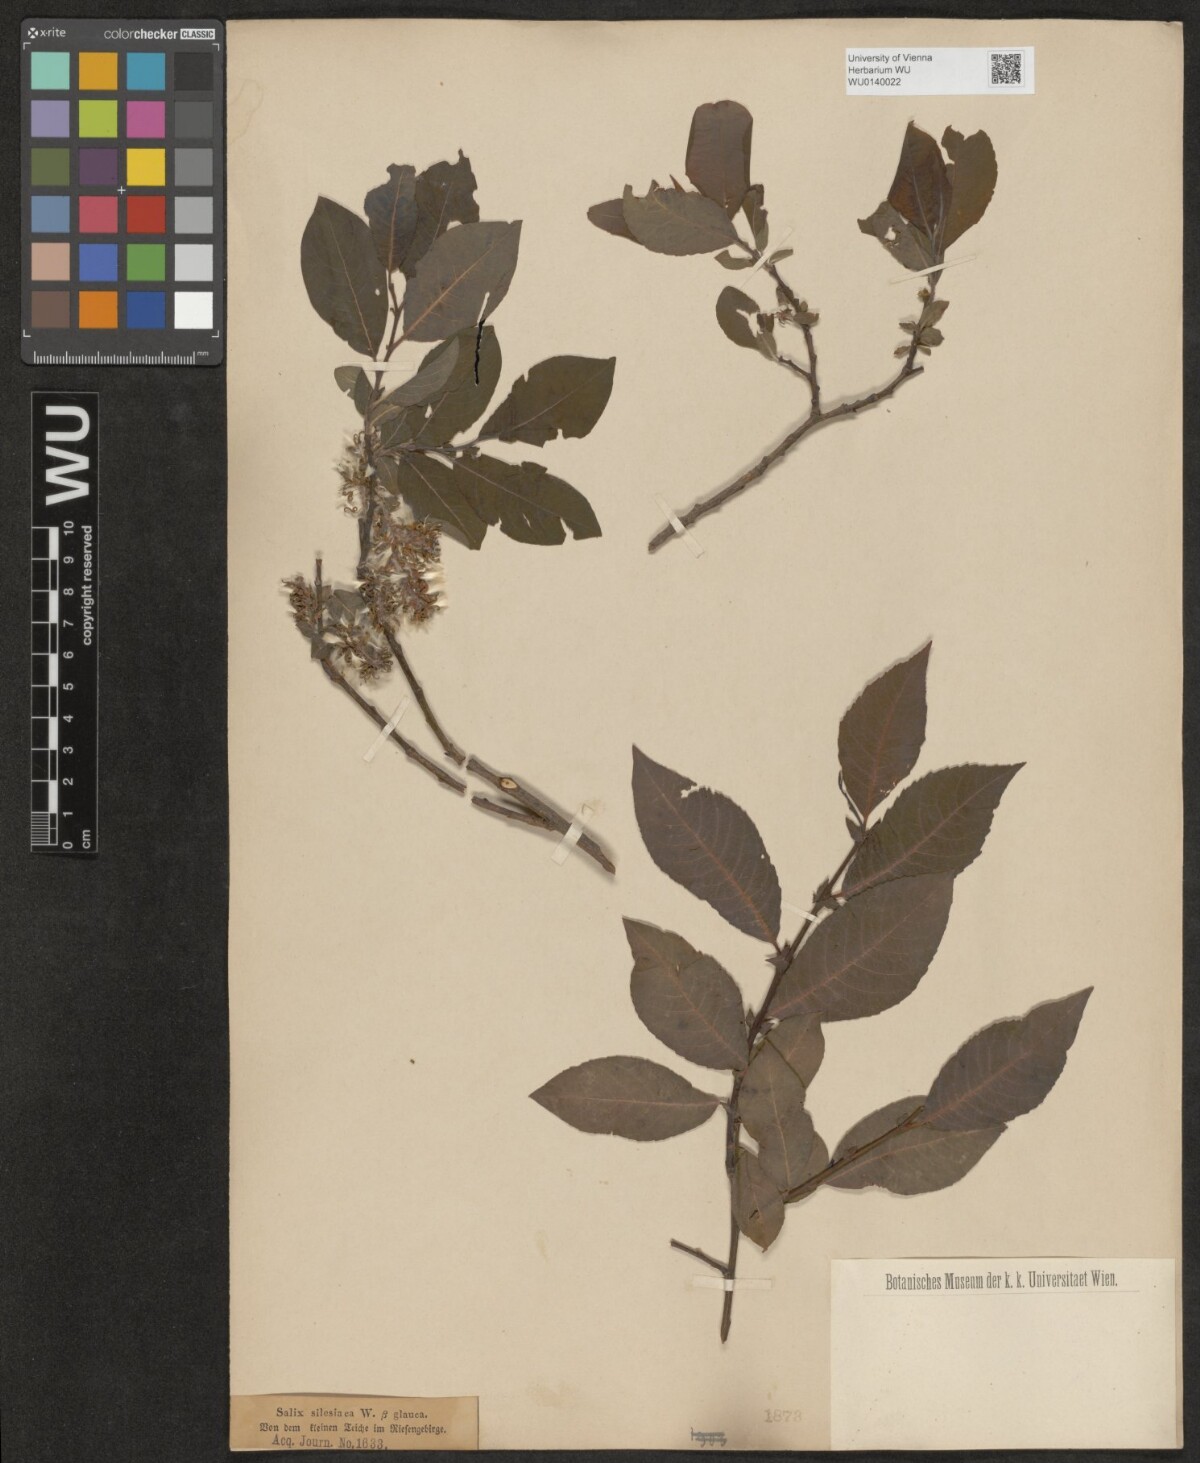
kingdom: Plantae
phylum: Tracheophyta
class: Magnoliopsida
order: Malpighiales
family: Salicaceae
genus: Salix
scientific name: Salix silesiaca
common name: Silesian willow
